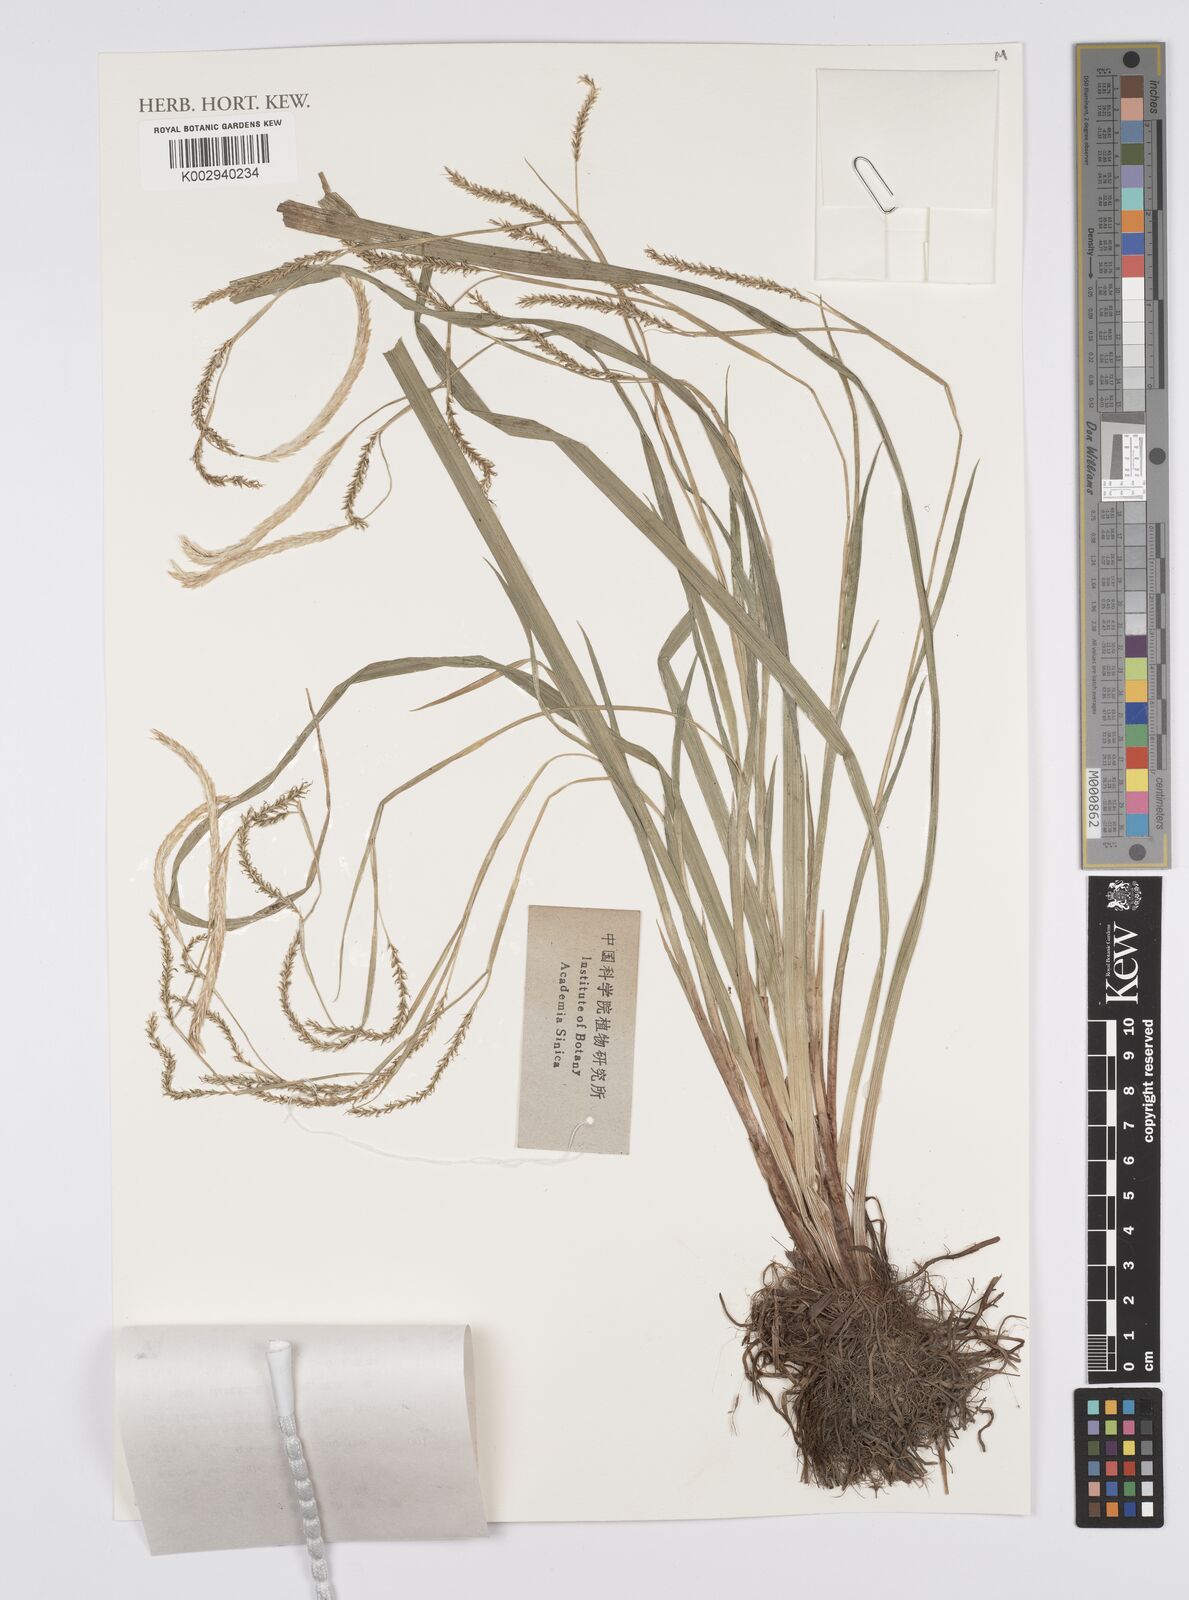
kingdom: Plantae
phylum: Tracheophyta
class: Liliopsida
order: Poales
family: Cyperaceae
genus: Carex
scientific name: Carex phacota
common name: Lakeshore sedge
